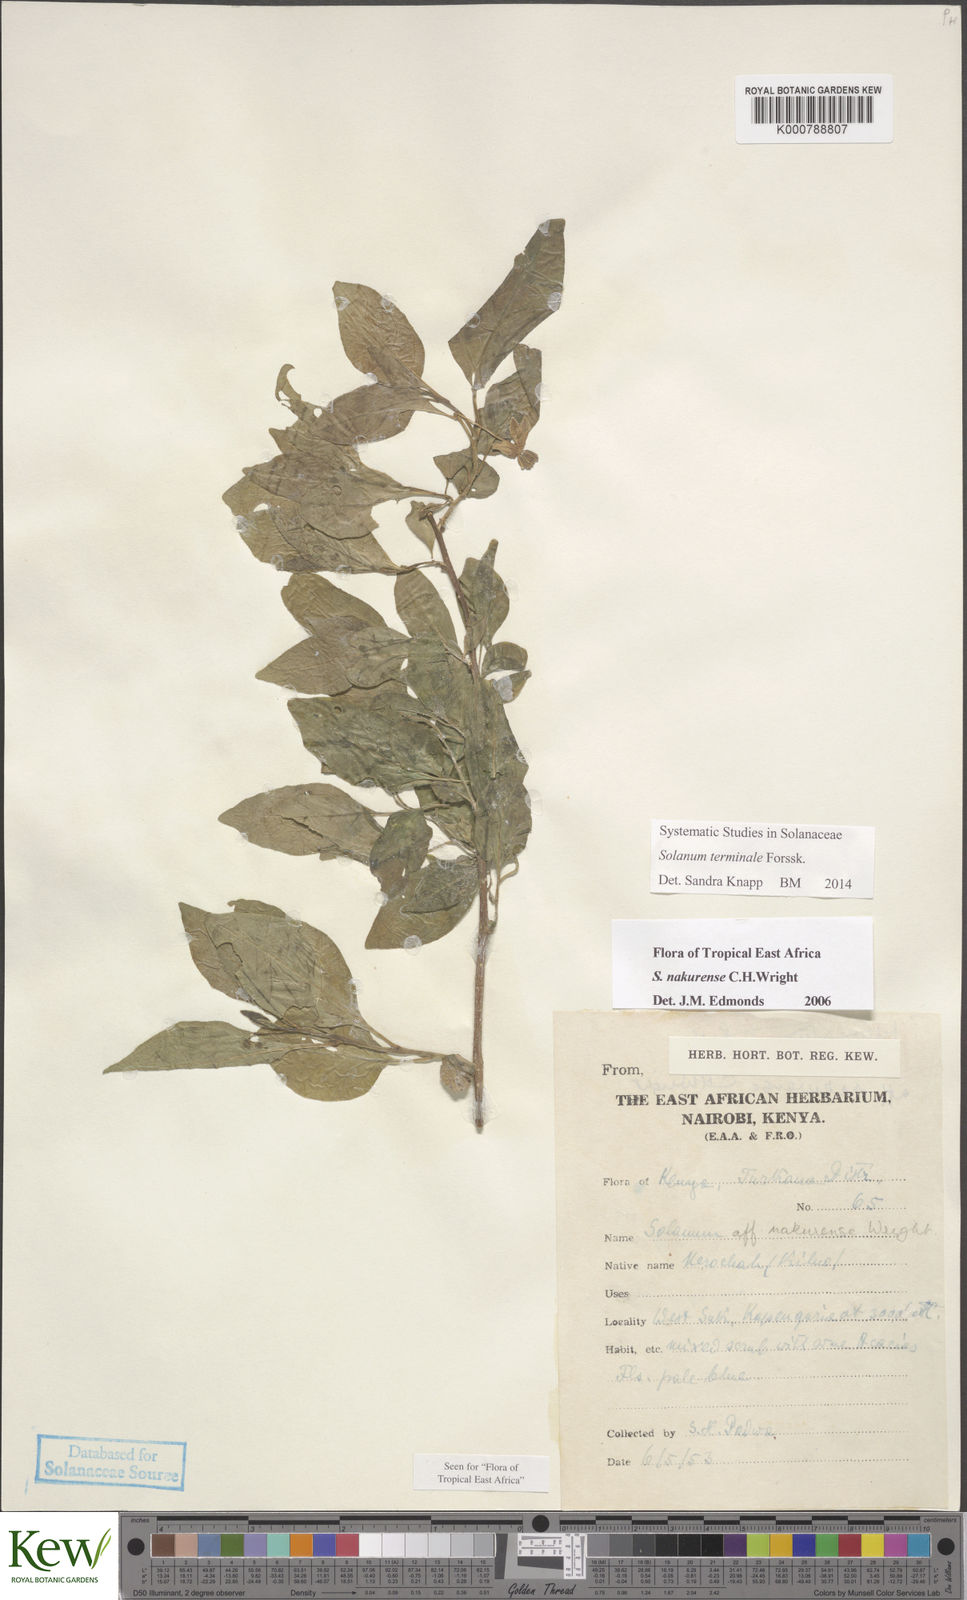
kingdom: Plantae
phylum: Tracheophyta
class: Magnoliopsida
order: Solanales
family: Solanaceae
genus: Solanum
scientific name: Solanum nakurense
